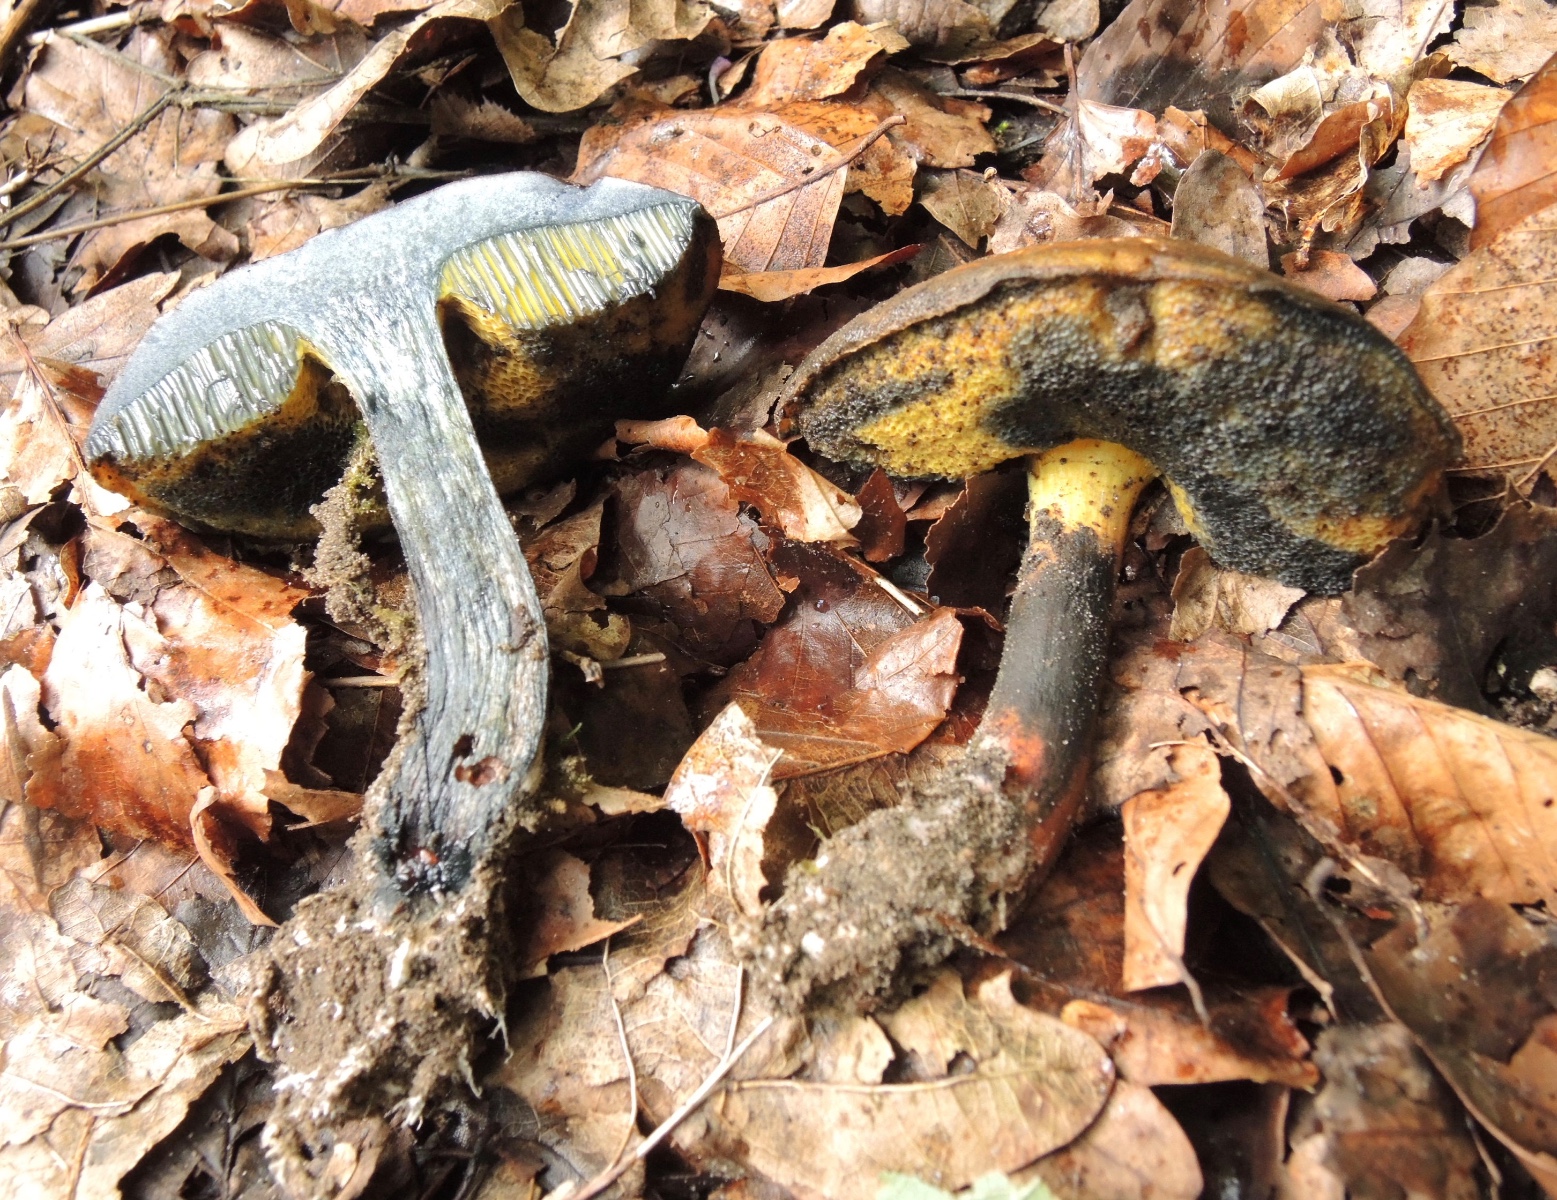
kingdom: Fungi
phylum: Basidiomycota
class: Agaricomycetes
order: Boletales
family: Boletaceae
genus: Cyanoboletus
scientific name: Cyanoboletus pulverulentus
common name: sortblånende rørhat
